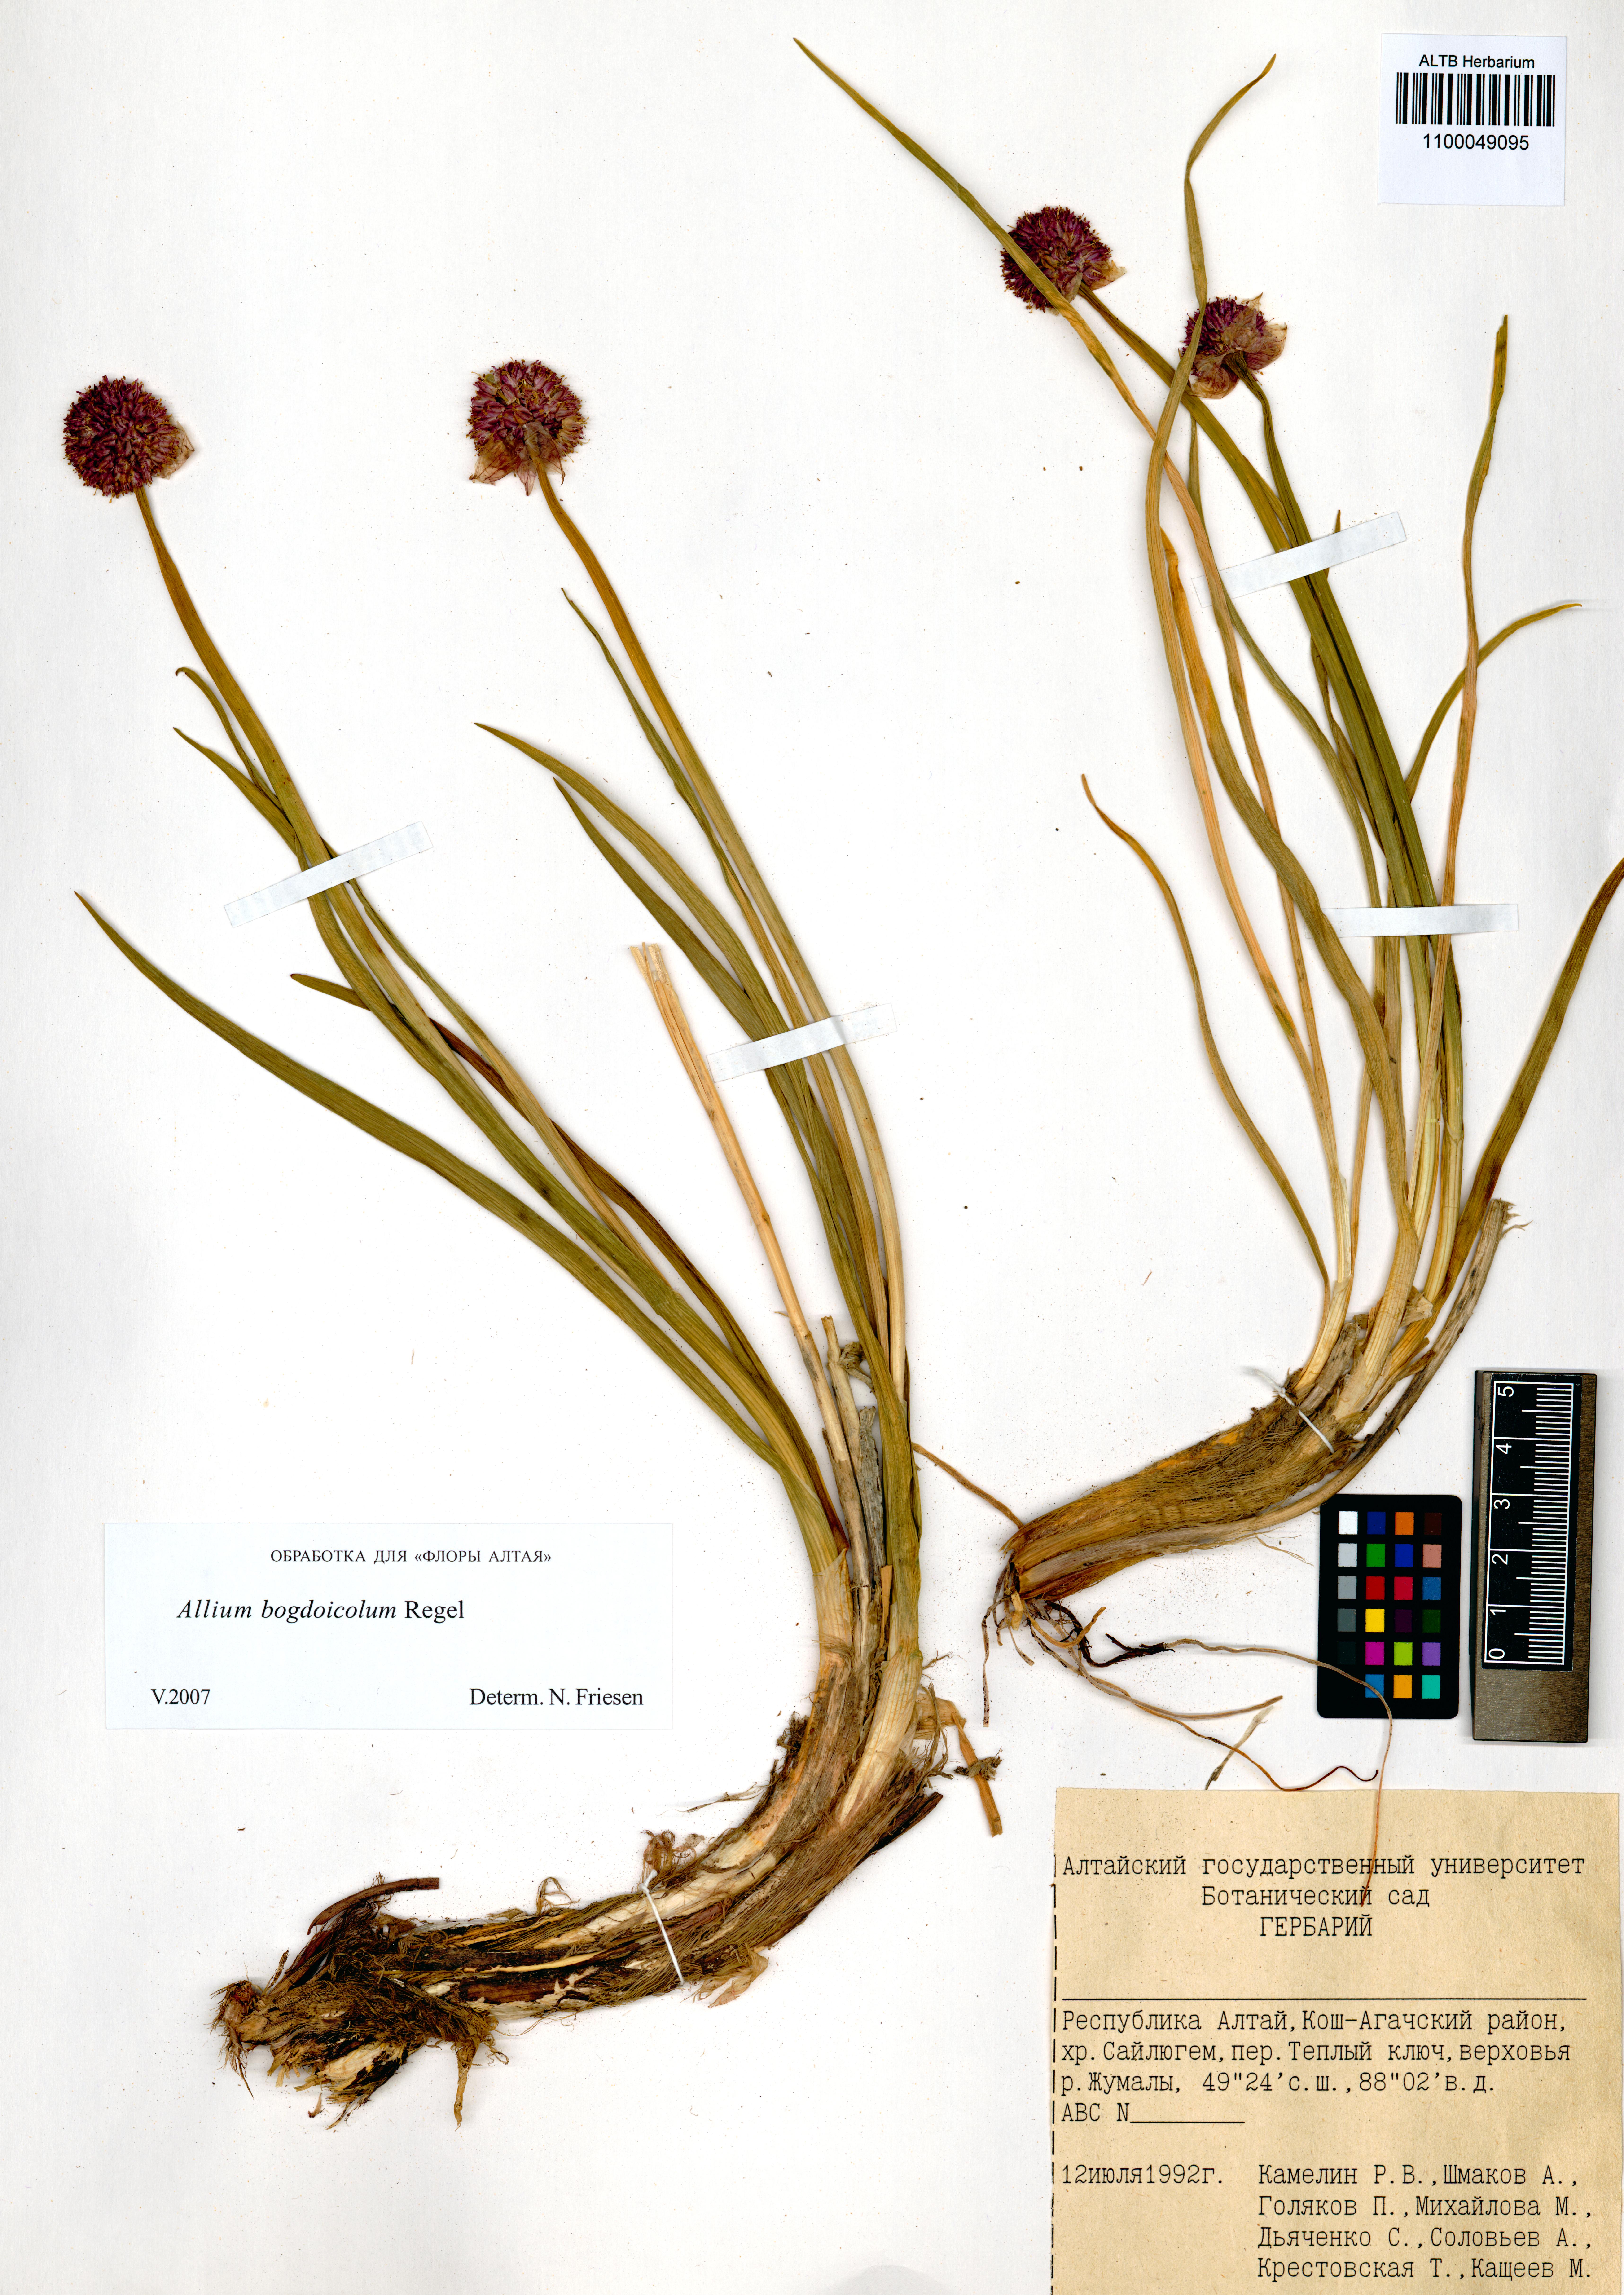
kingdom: Plantae
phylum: Tracheophyta
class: Liliopsida
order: Asparagales
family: Amaryllidaceae
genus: Allium
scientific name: Allium schrenkii
